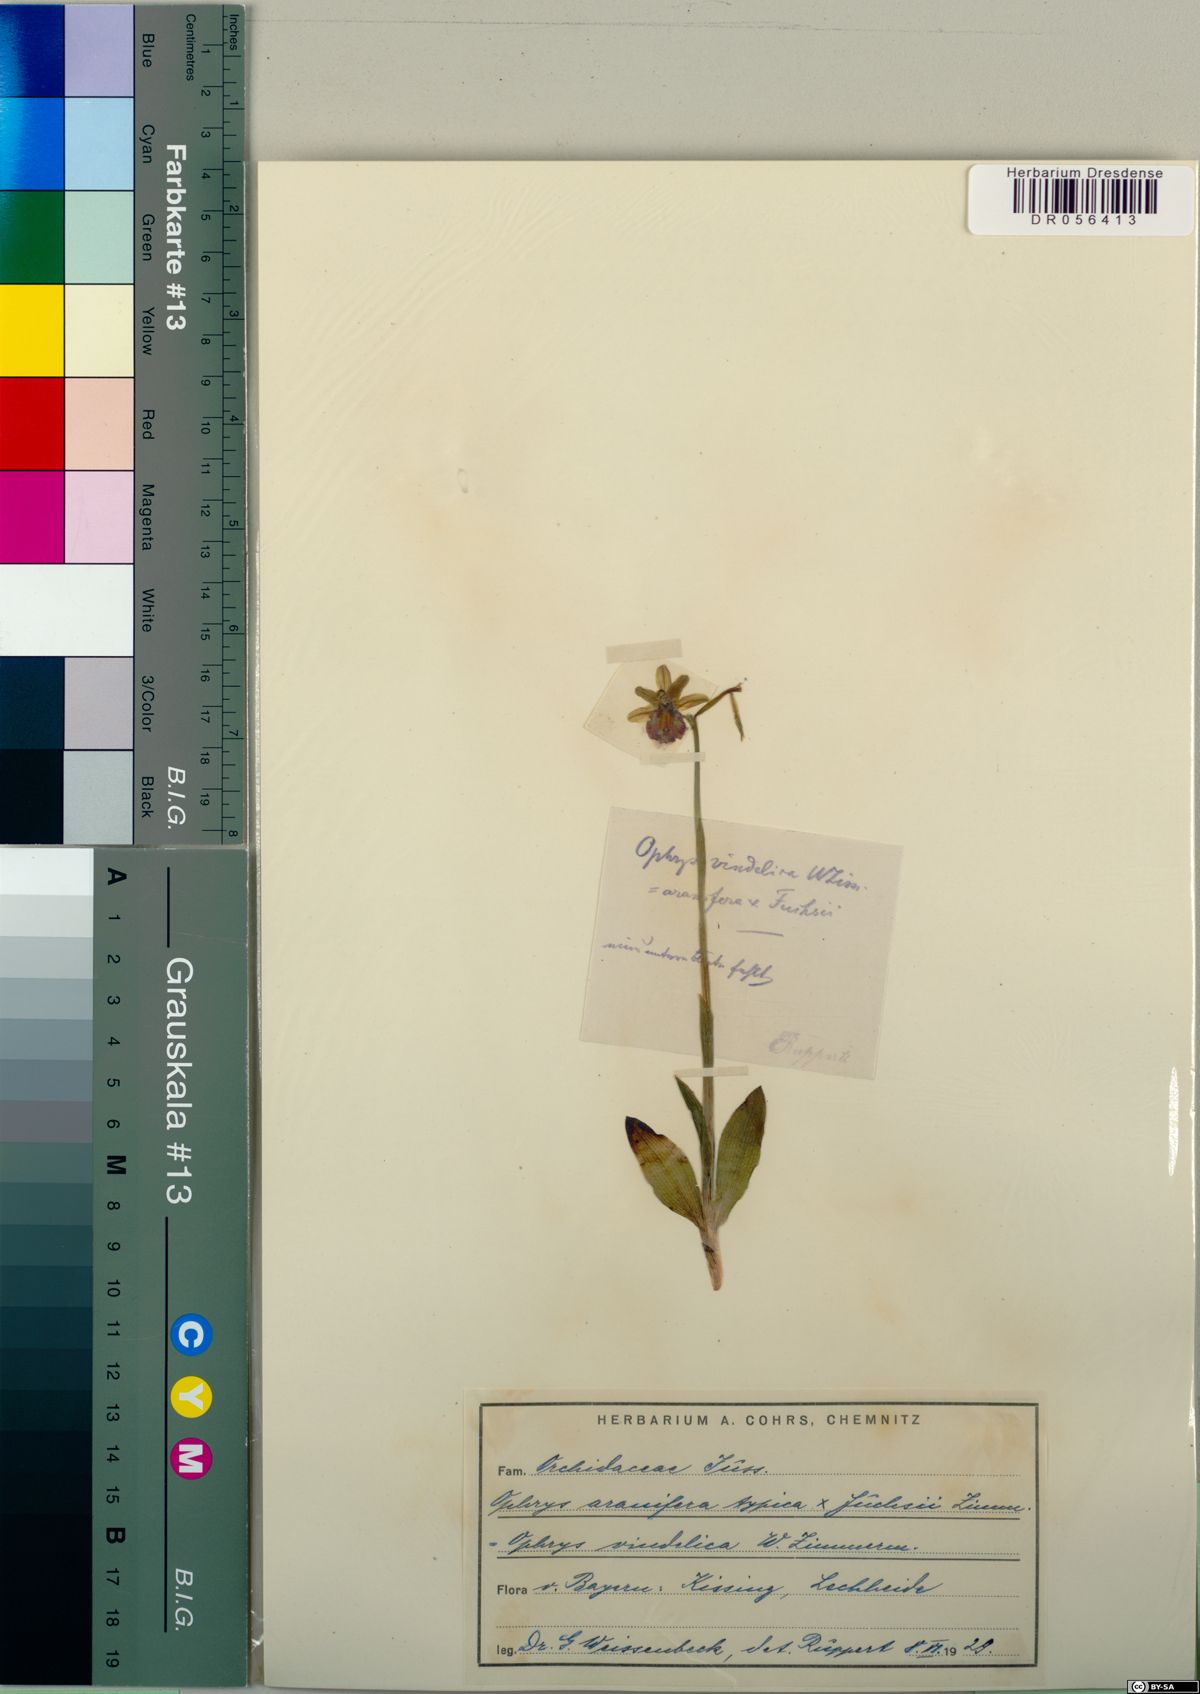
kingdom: Plantae
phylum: Tracheophyta
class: Liliopsida
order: Asparagales
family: Orchidaceae
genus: Ophrys
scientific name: Ophrys sphegodes
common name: Early spider-orchid
